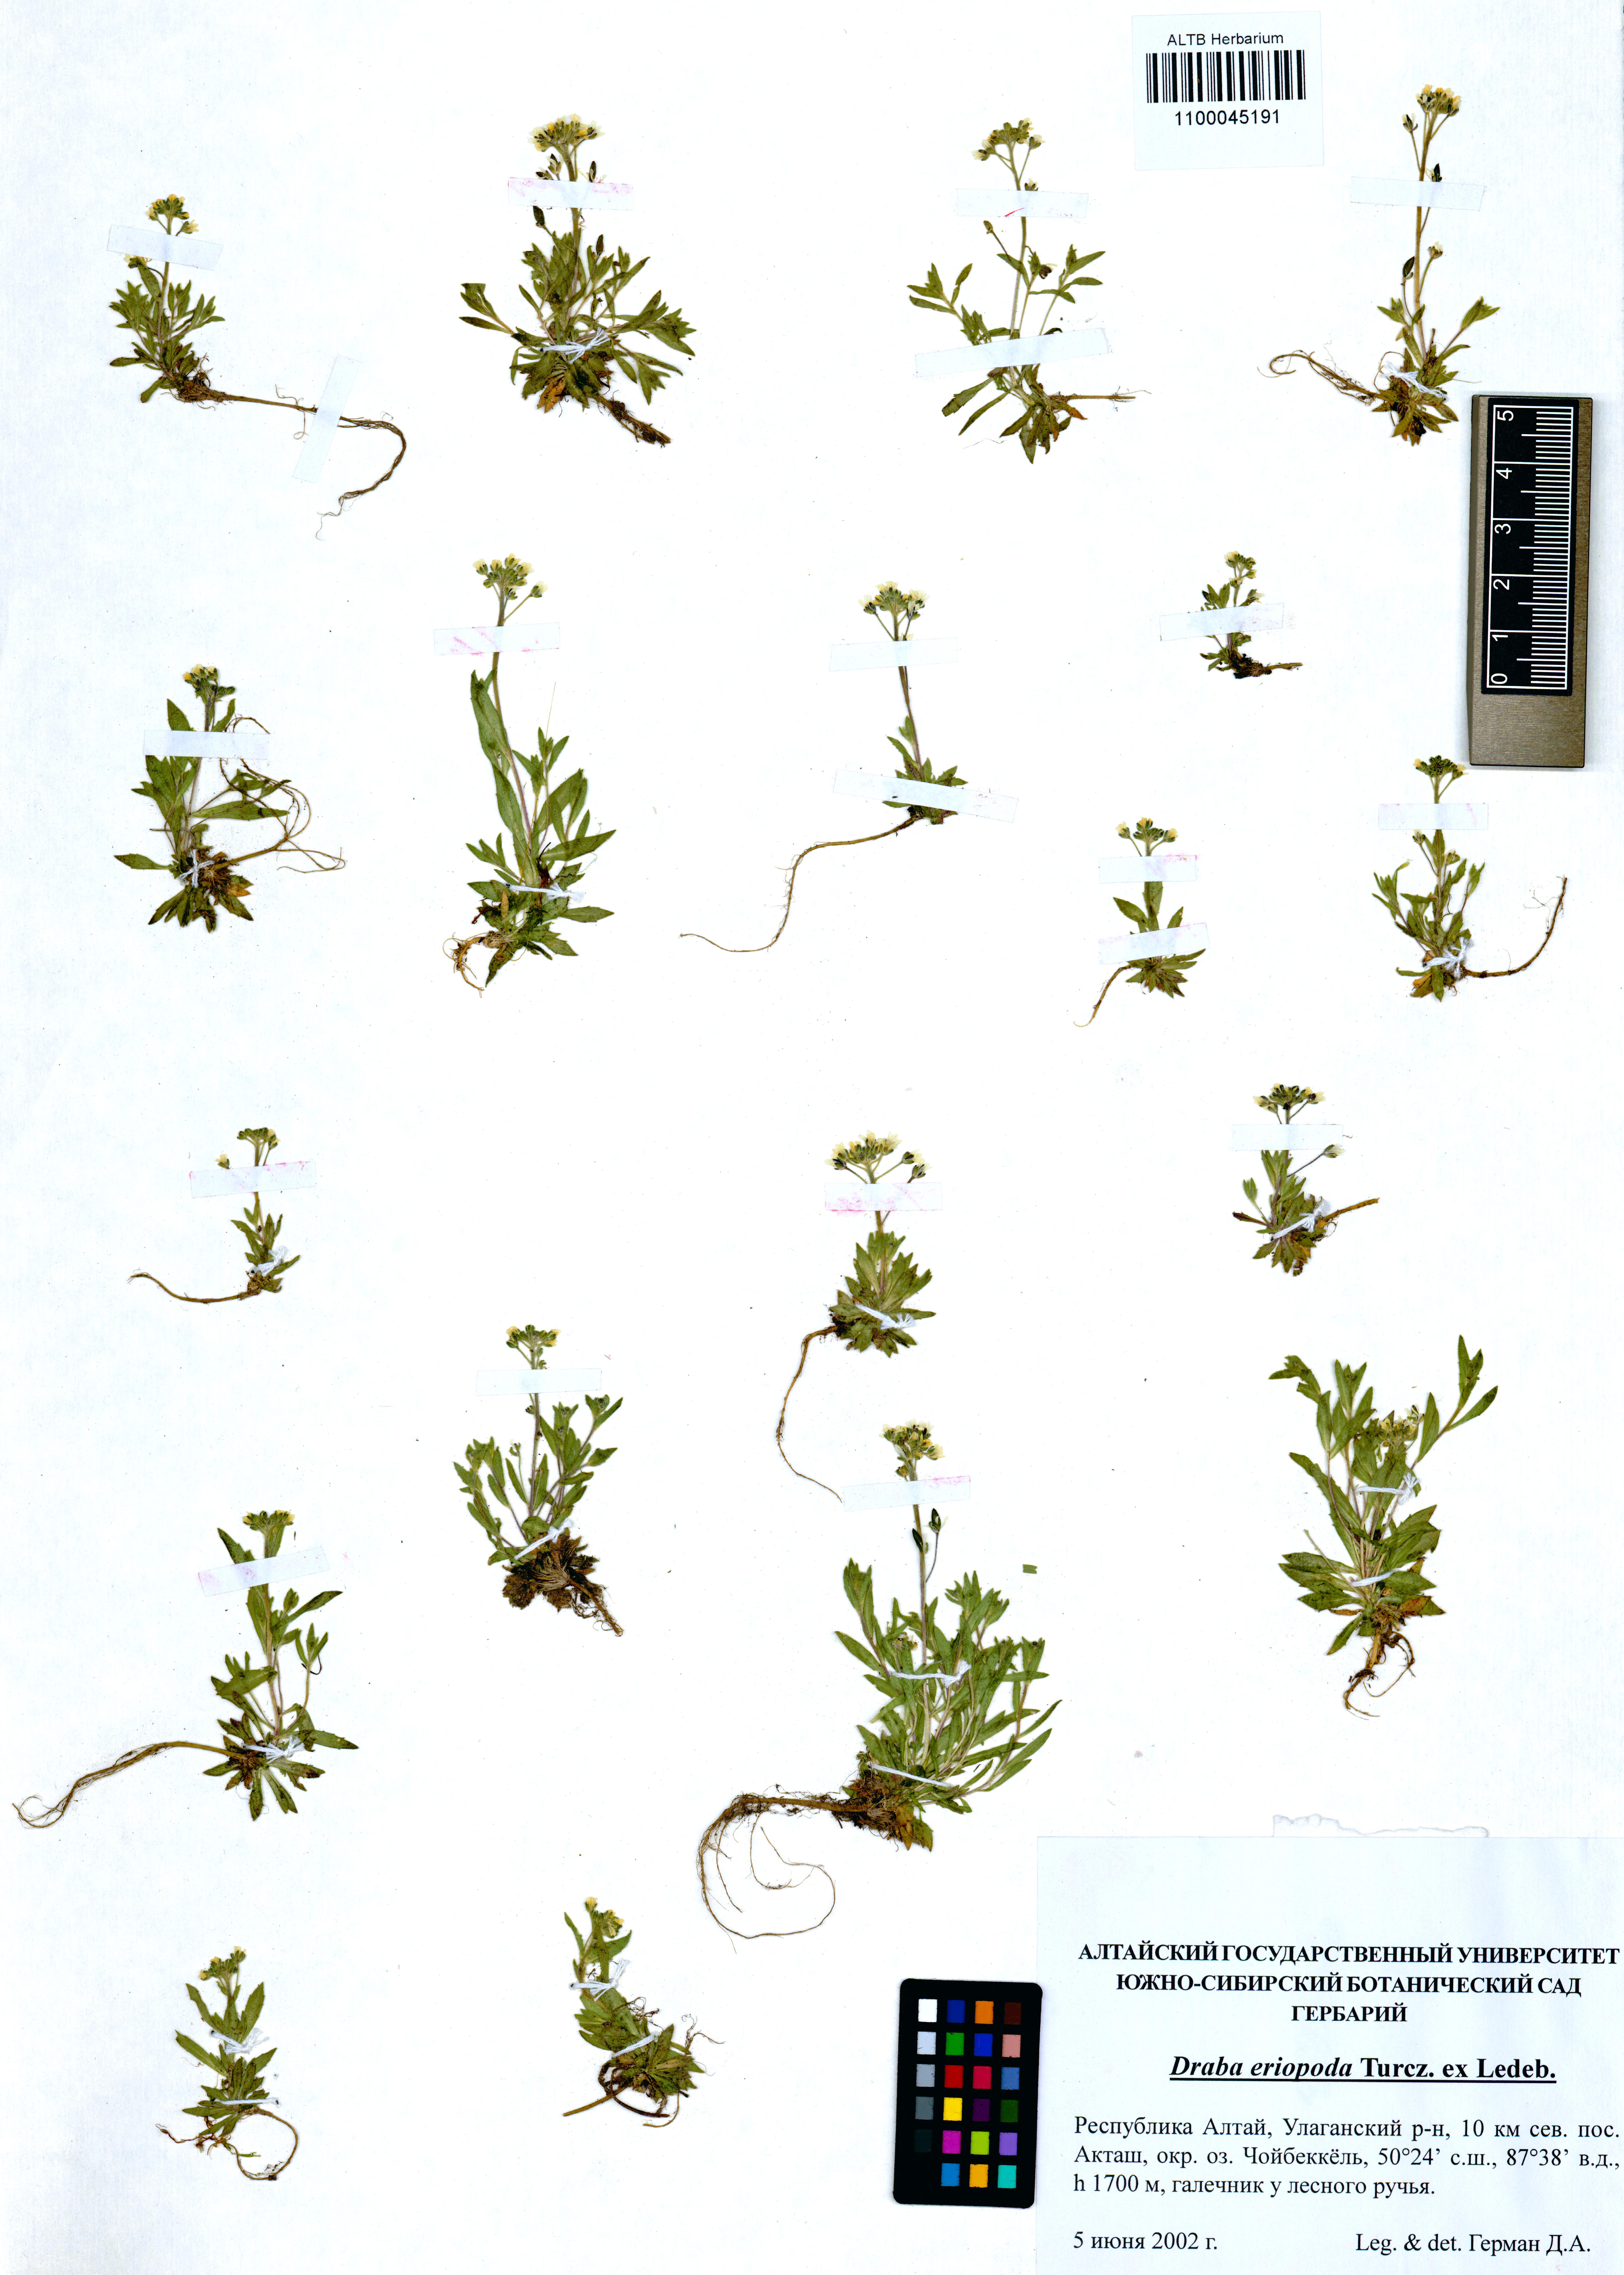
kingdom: Plantae
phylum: Tracheophyta
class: Magnoliopsida
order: Brassicales
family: Brassicaceae
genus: Draba
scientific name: Draba eriopoda
